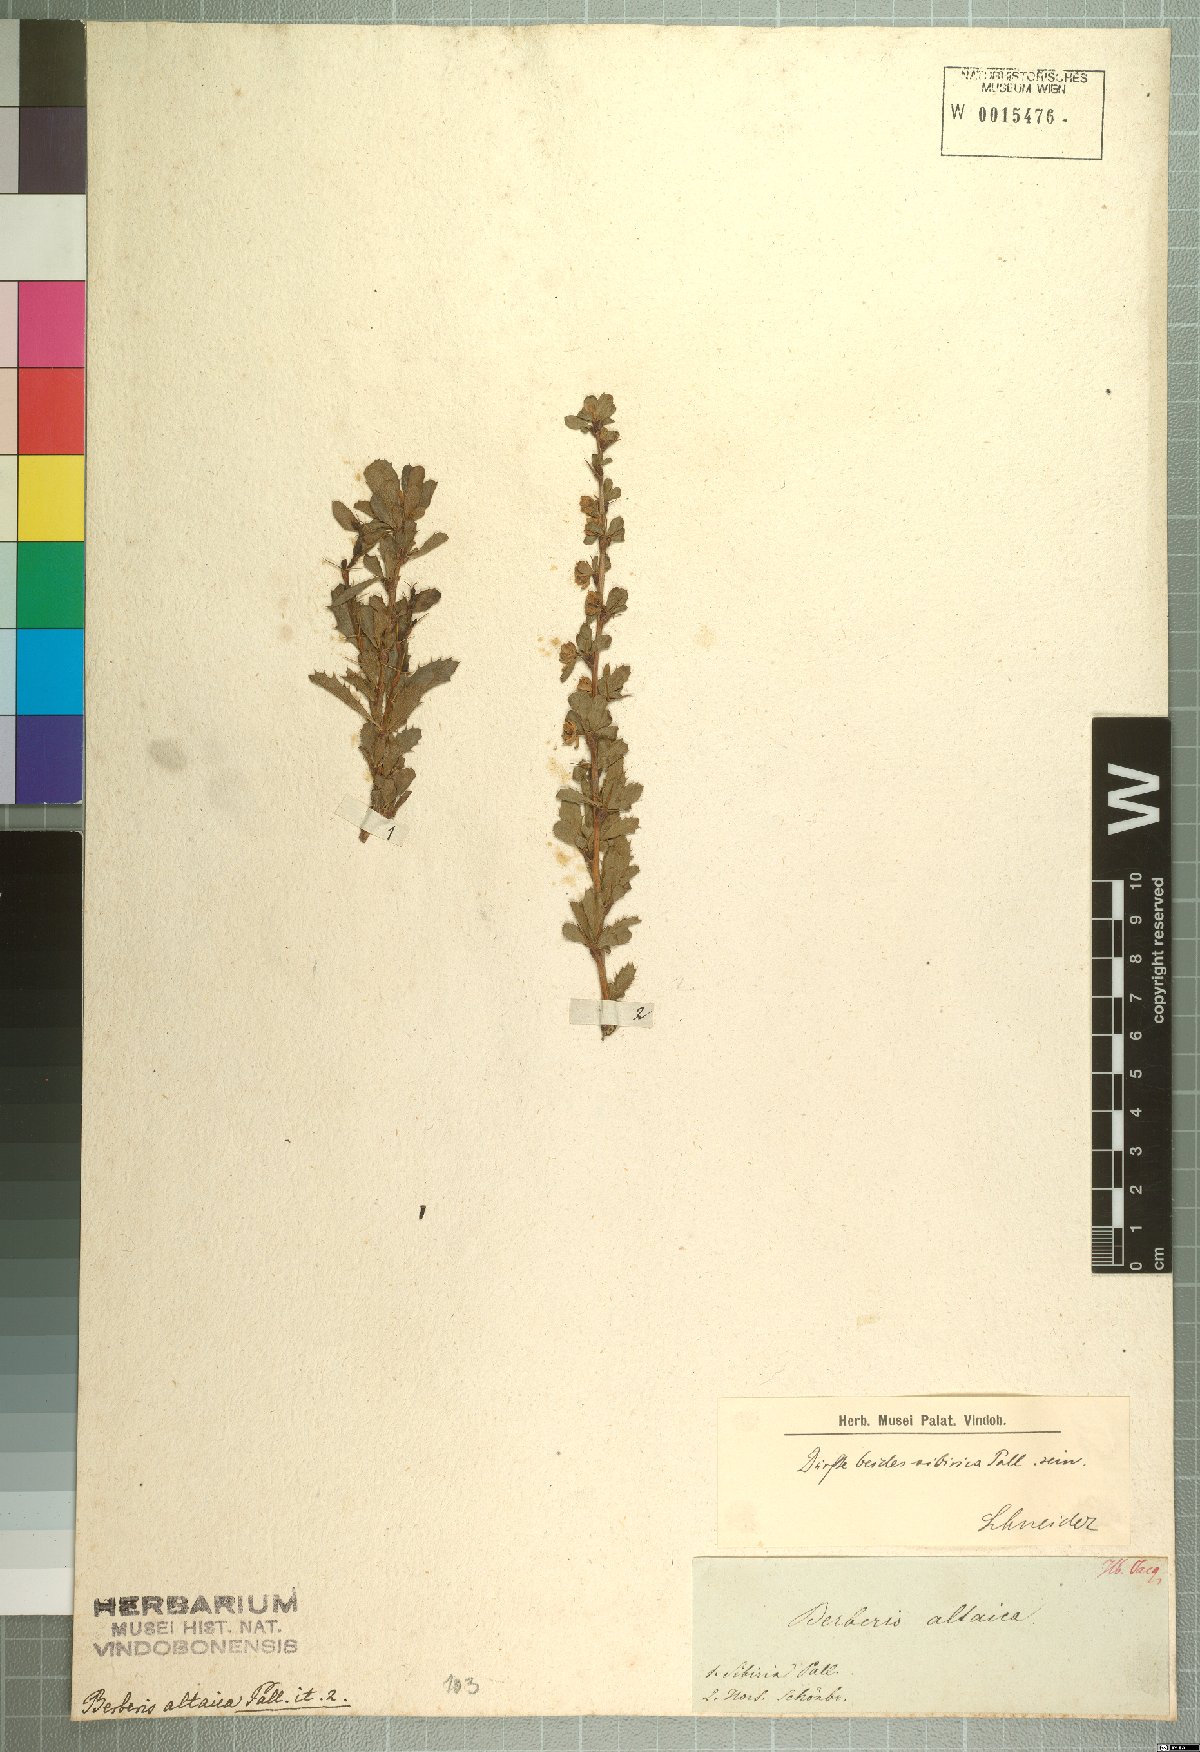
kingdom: Plantae
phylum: Tracheophyta
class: Magnoliopsida
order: Ranunculales
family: Berberidaceae
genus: Berberis
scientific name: Berberis sibirica
